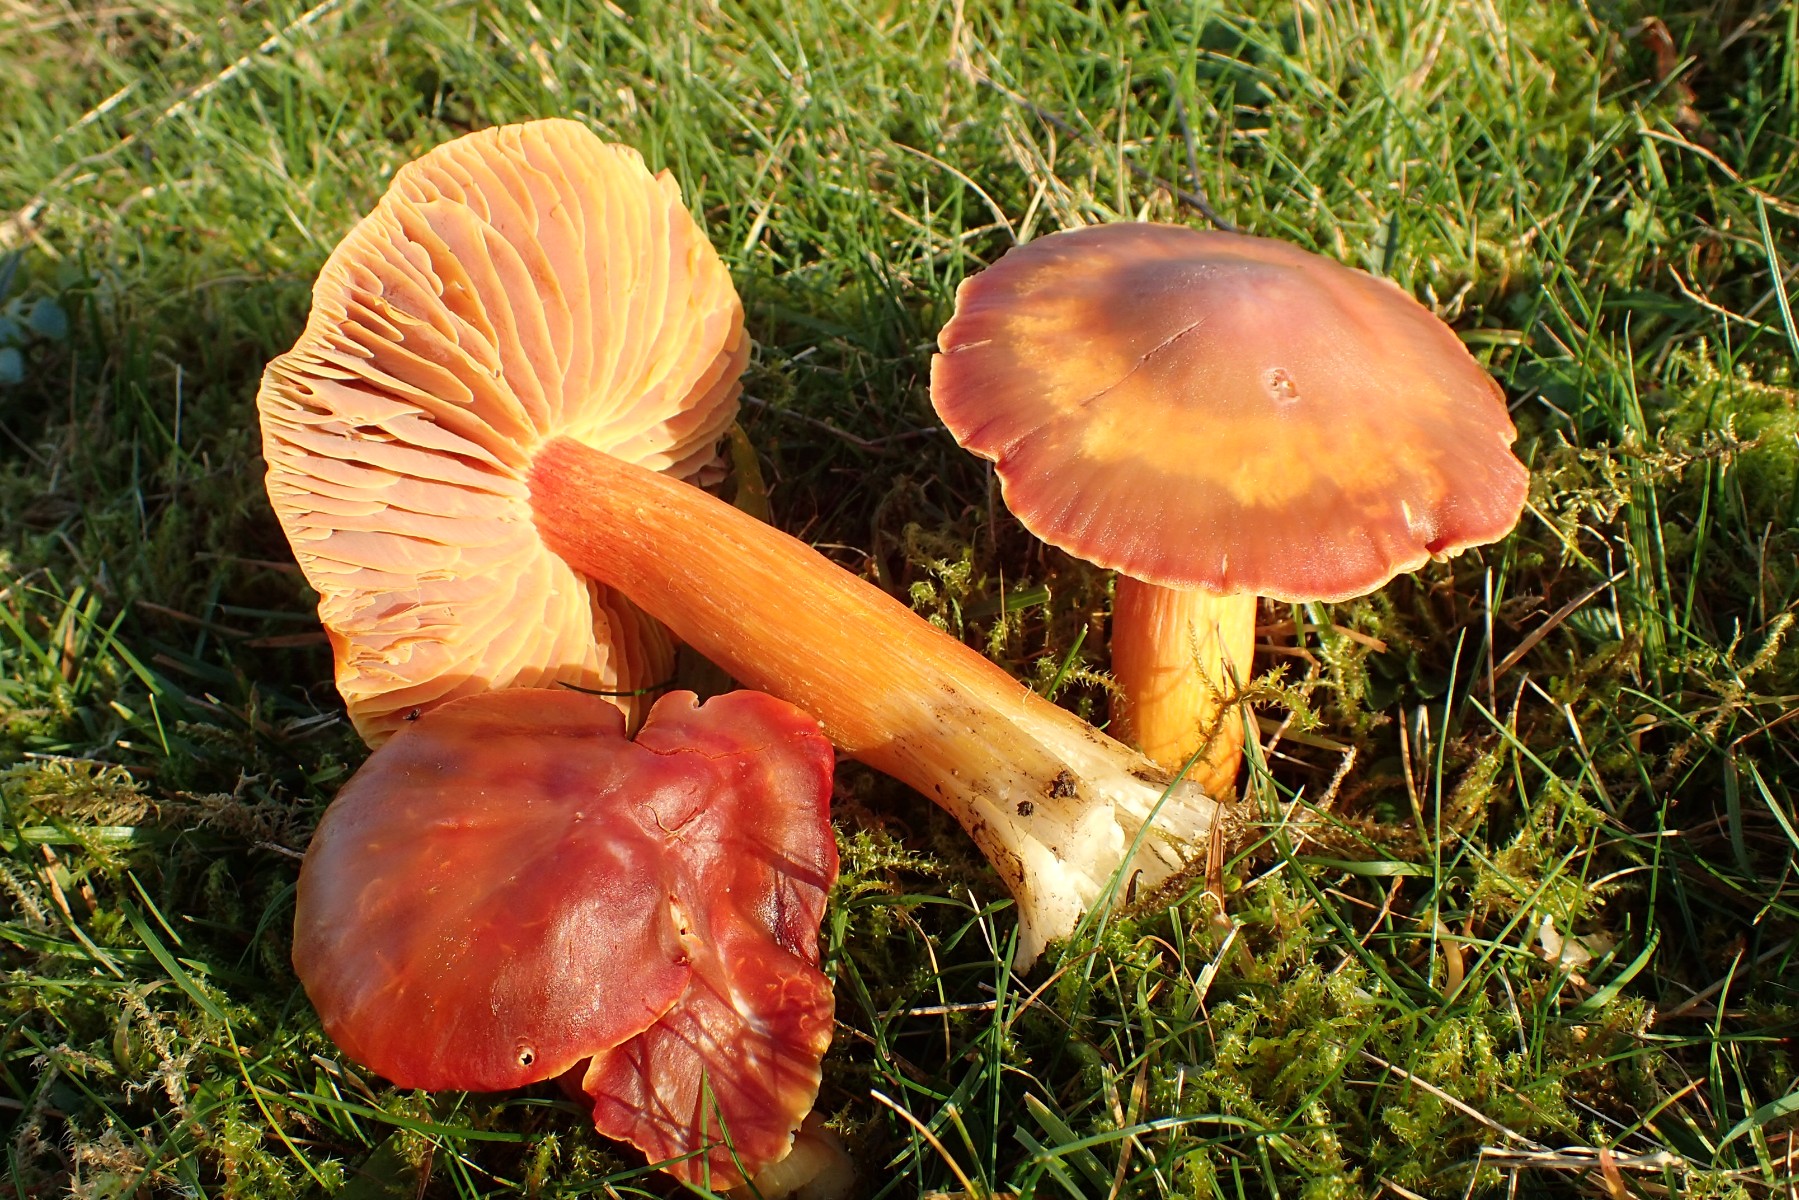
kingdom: Fungi
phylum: Basidiomycota
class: Agaricomycetes
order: Agaricales
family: Hygrophoraceae
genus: Hygrocybe
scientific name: Hygrocybe punicea
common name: skarlagen-vokshat
